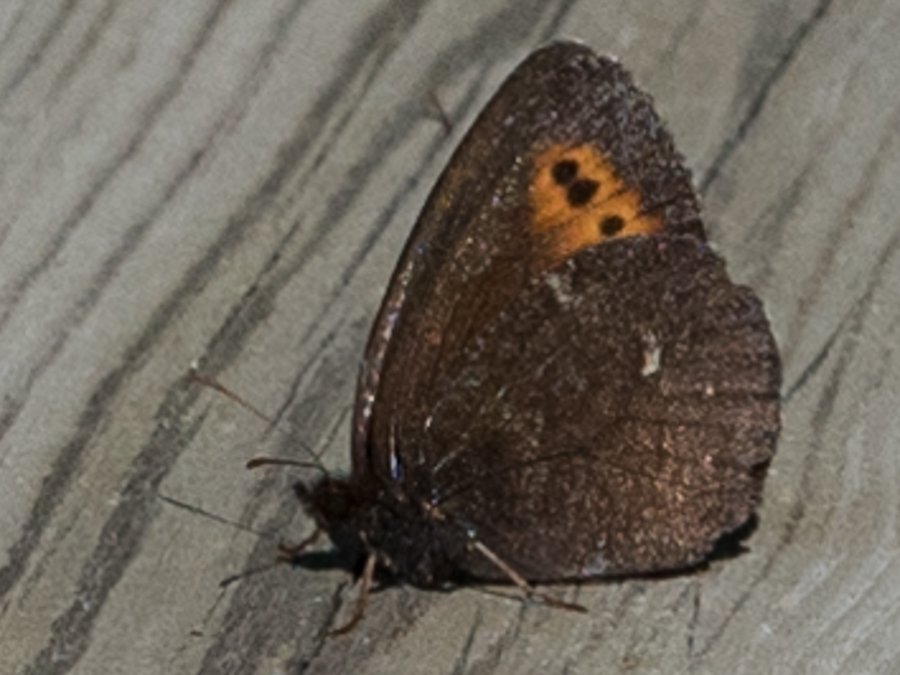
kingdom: Animalia
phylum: Arthropoda
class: Insecta
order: Lepidoptera
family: Nymphalidae
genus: Erebia
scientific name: Erebia disa
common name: Taiga Alpine
